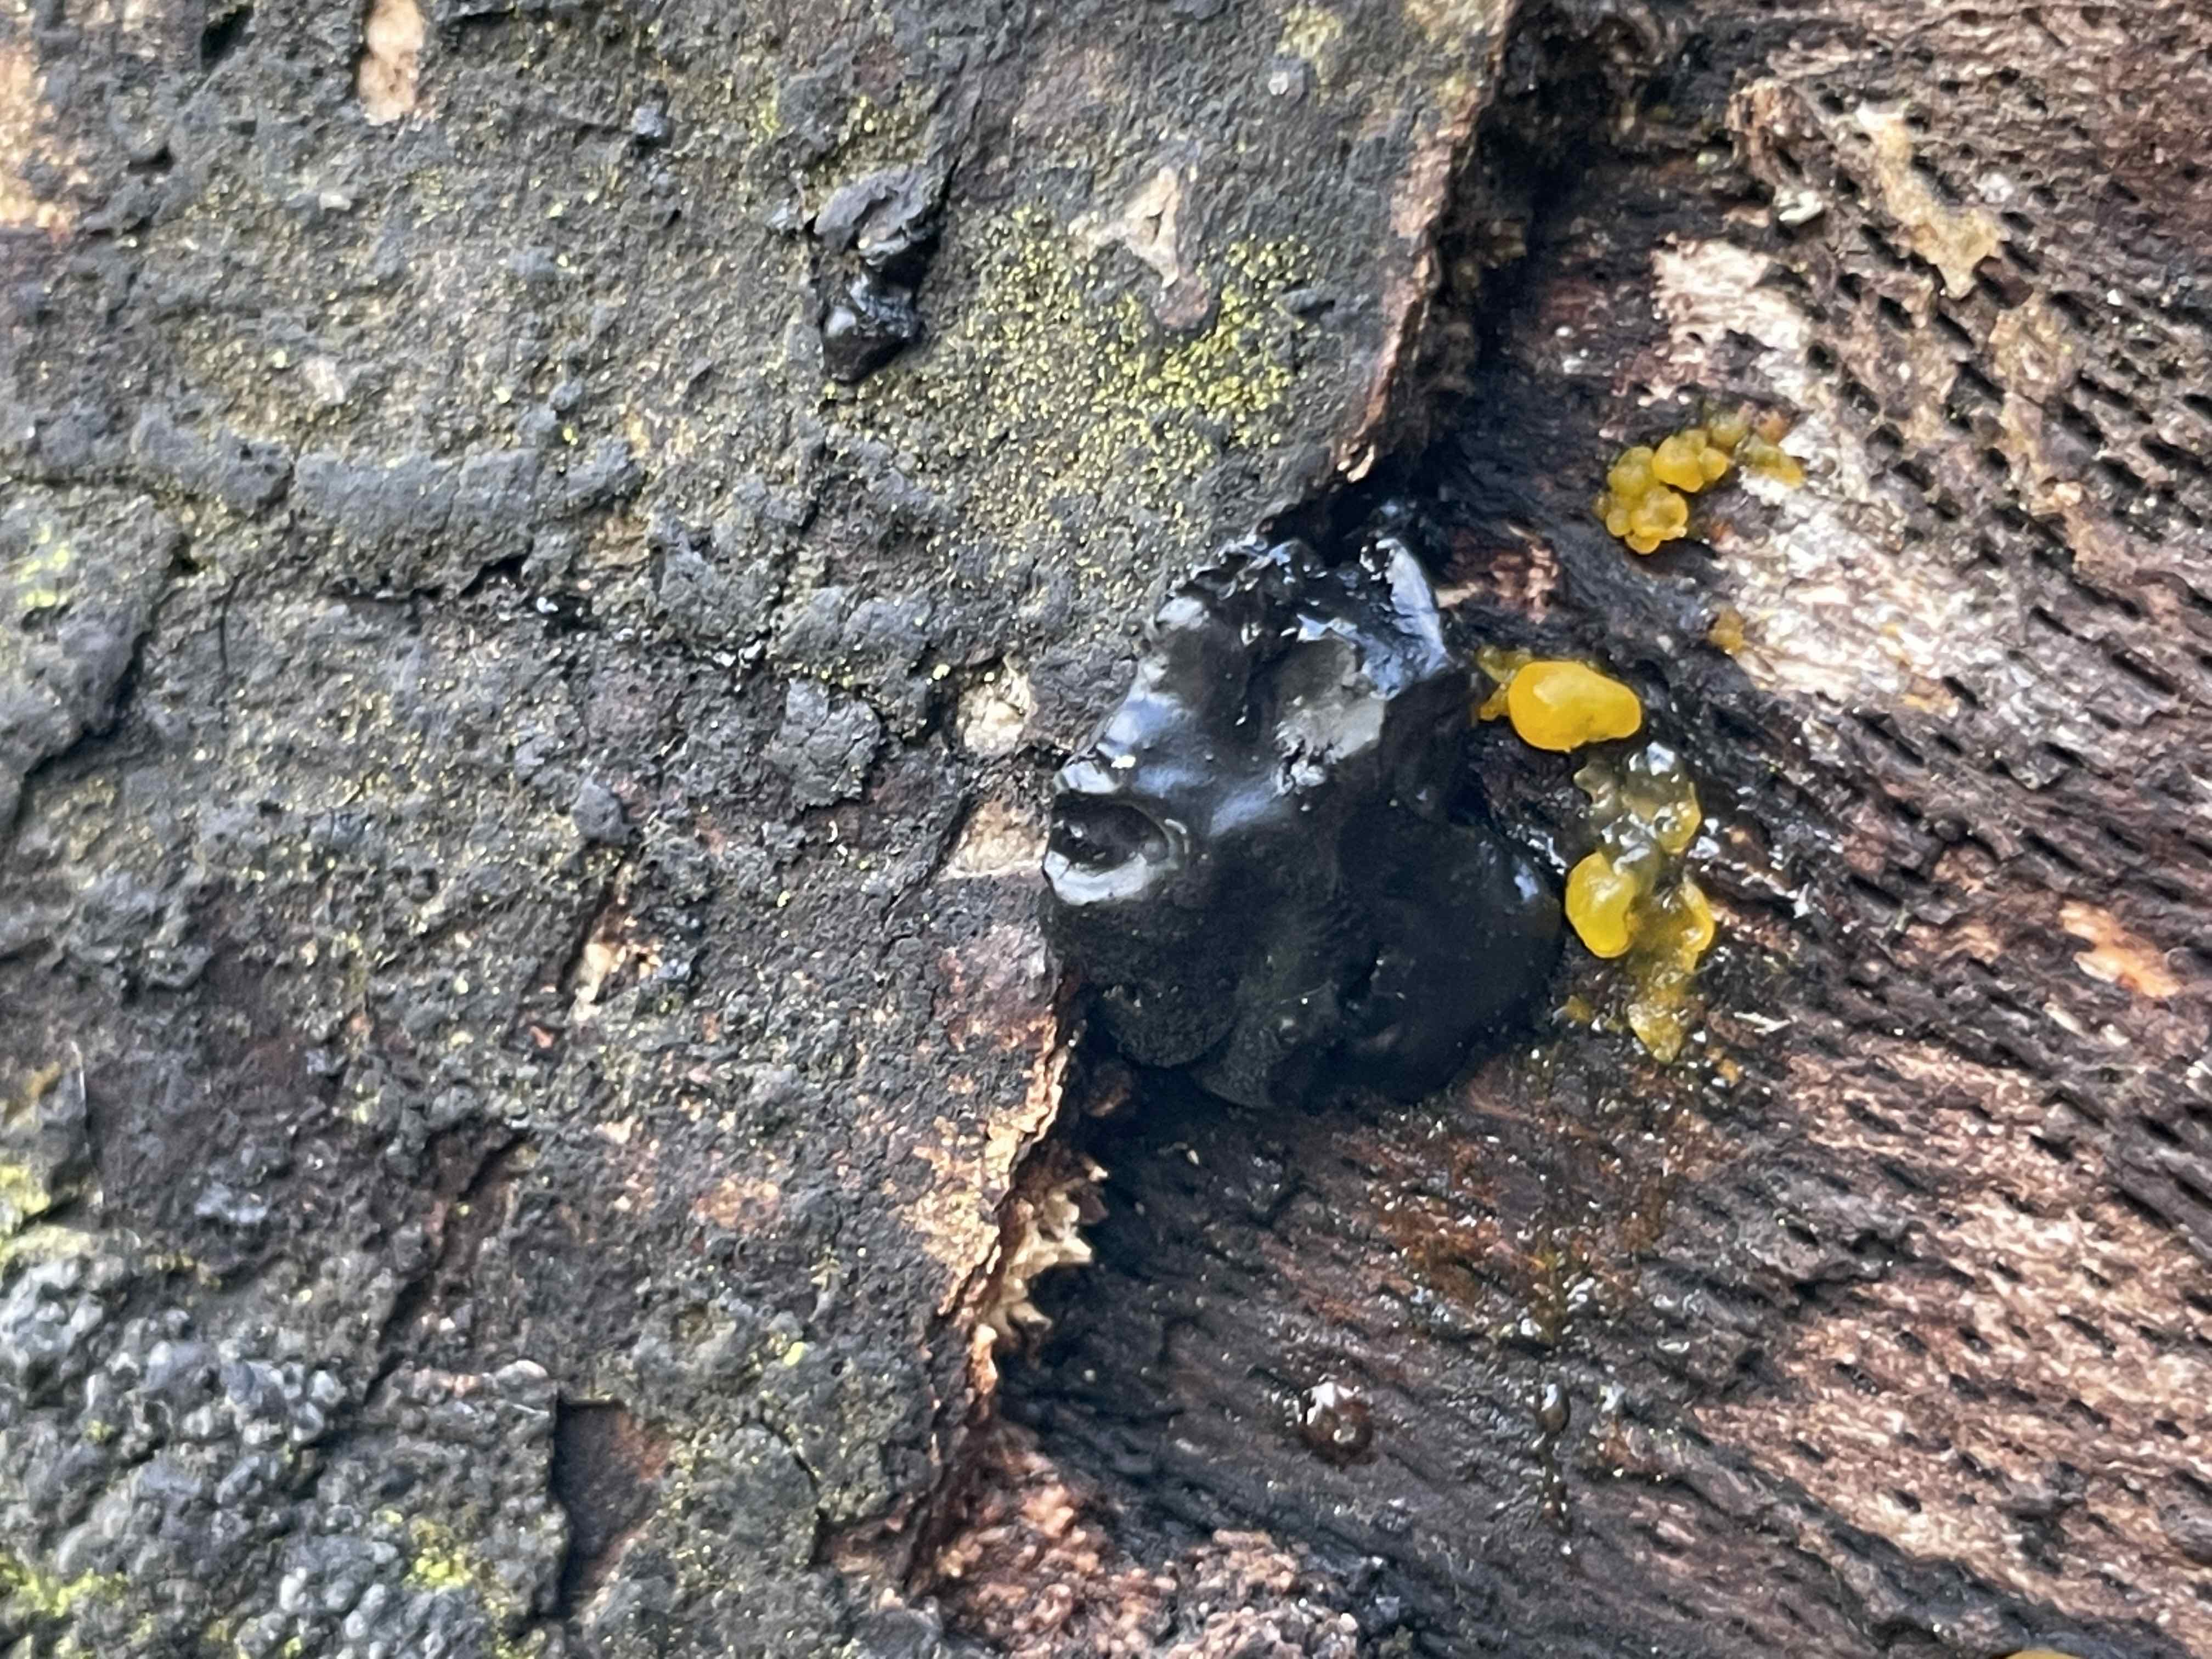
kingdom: Fungi
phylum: Basidiomycota
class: Agaricomycetes
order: Auriculariales
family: Auriculariaceae
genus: Exidia
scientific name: Exidia nigricans
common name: almindelig bævretop
